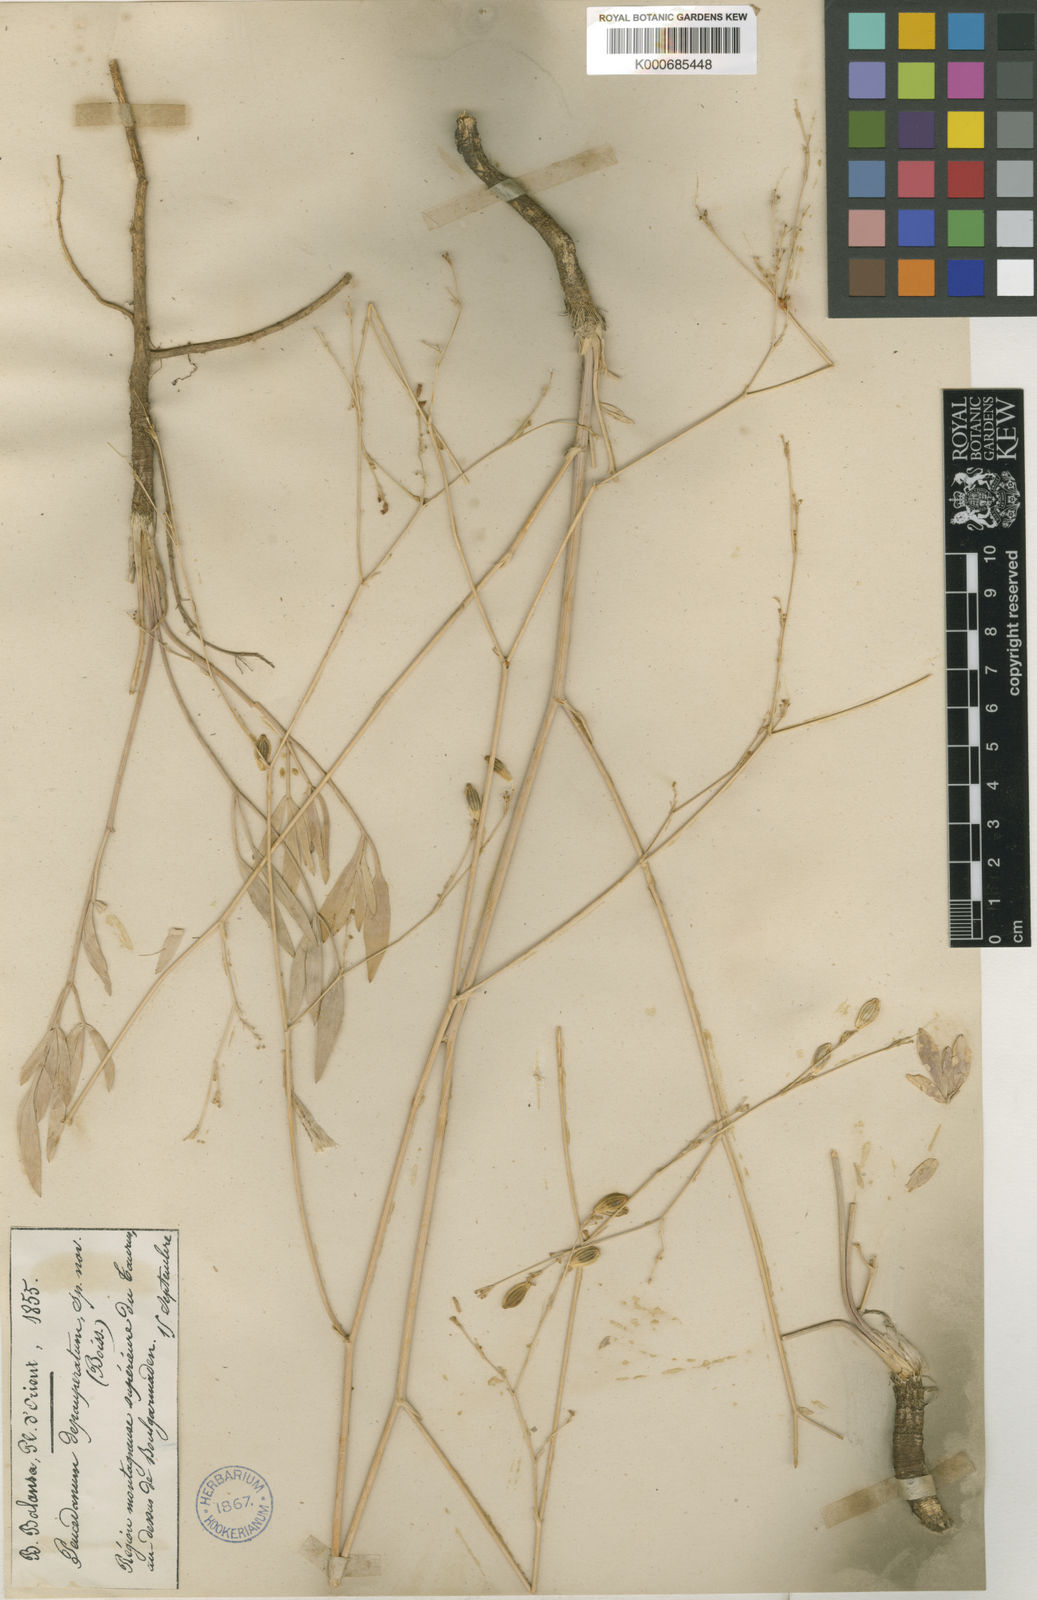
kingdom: Plantae
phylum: Tracheophyta
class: Magnoliopsida
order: Apiales
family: Apiaceae
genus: Dichoropetalum
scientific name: Dichoropetalum depauperatum
